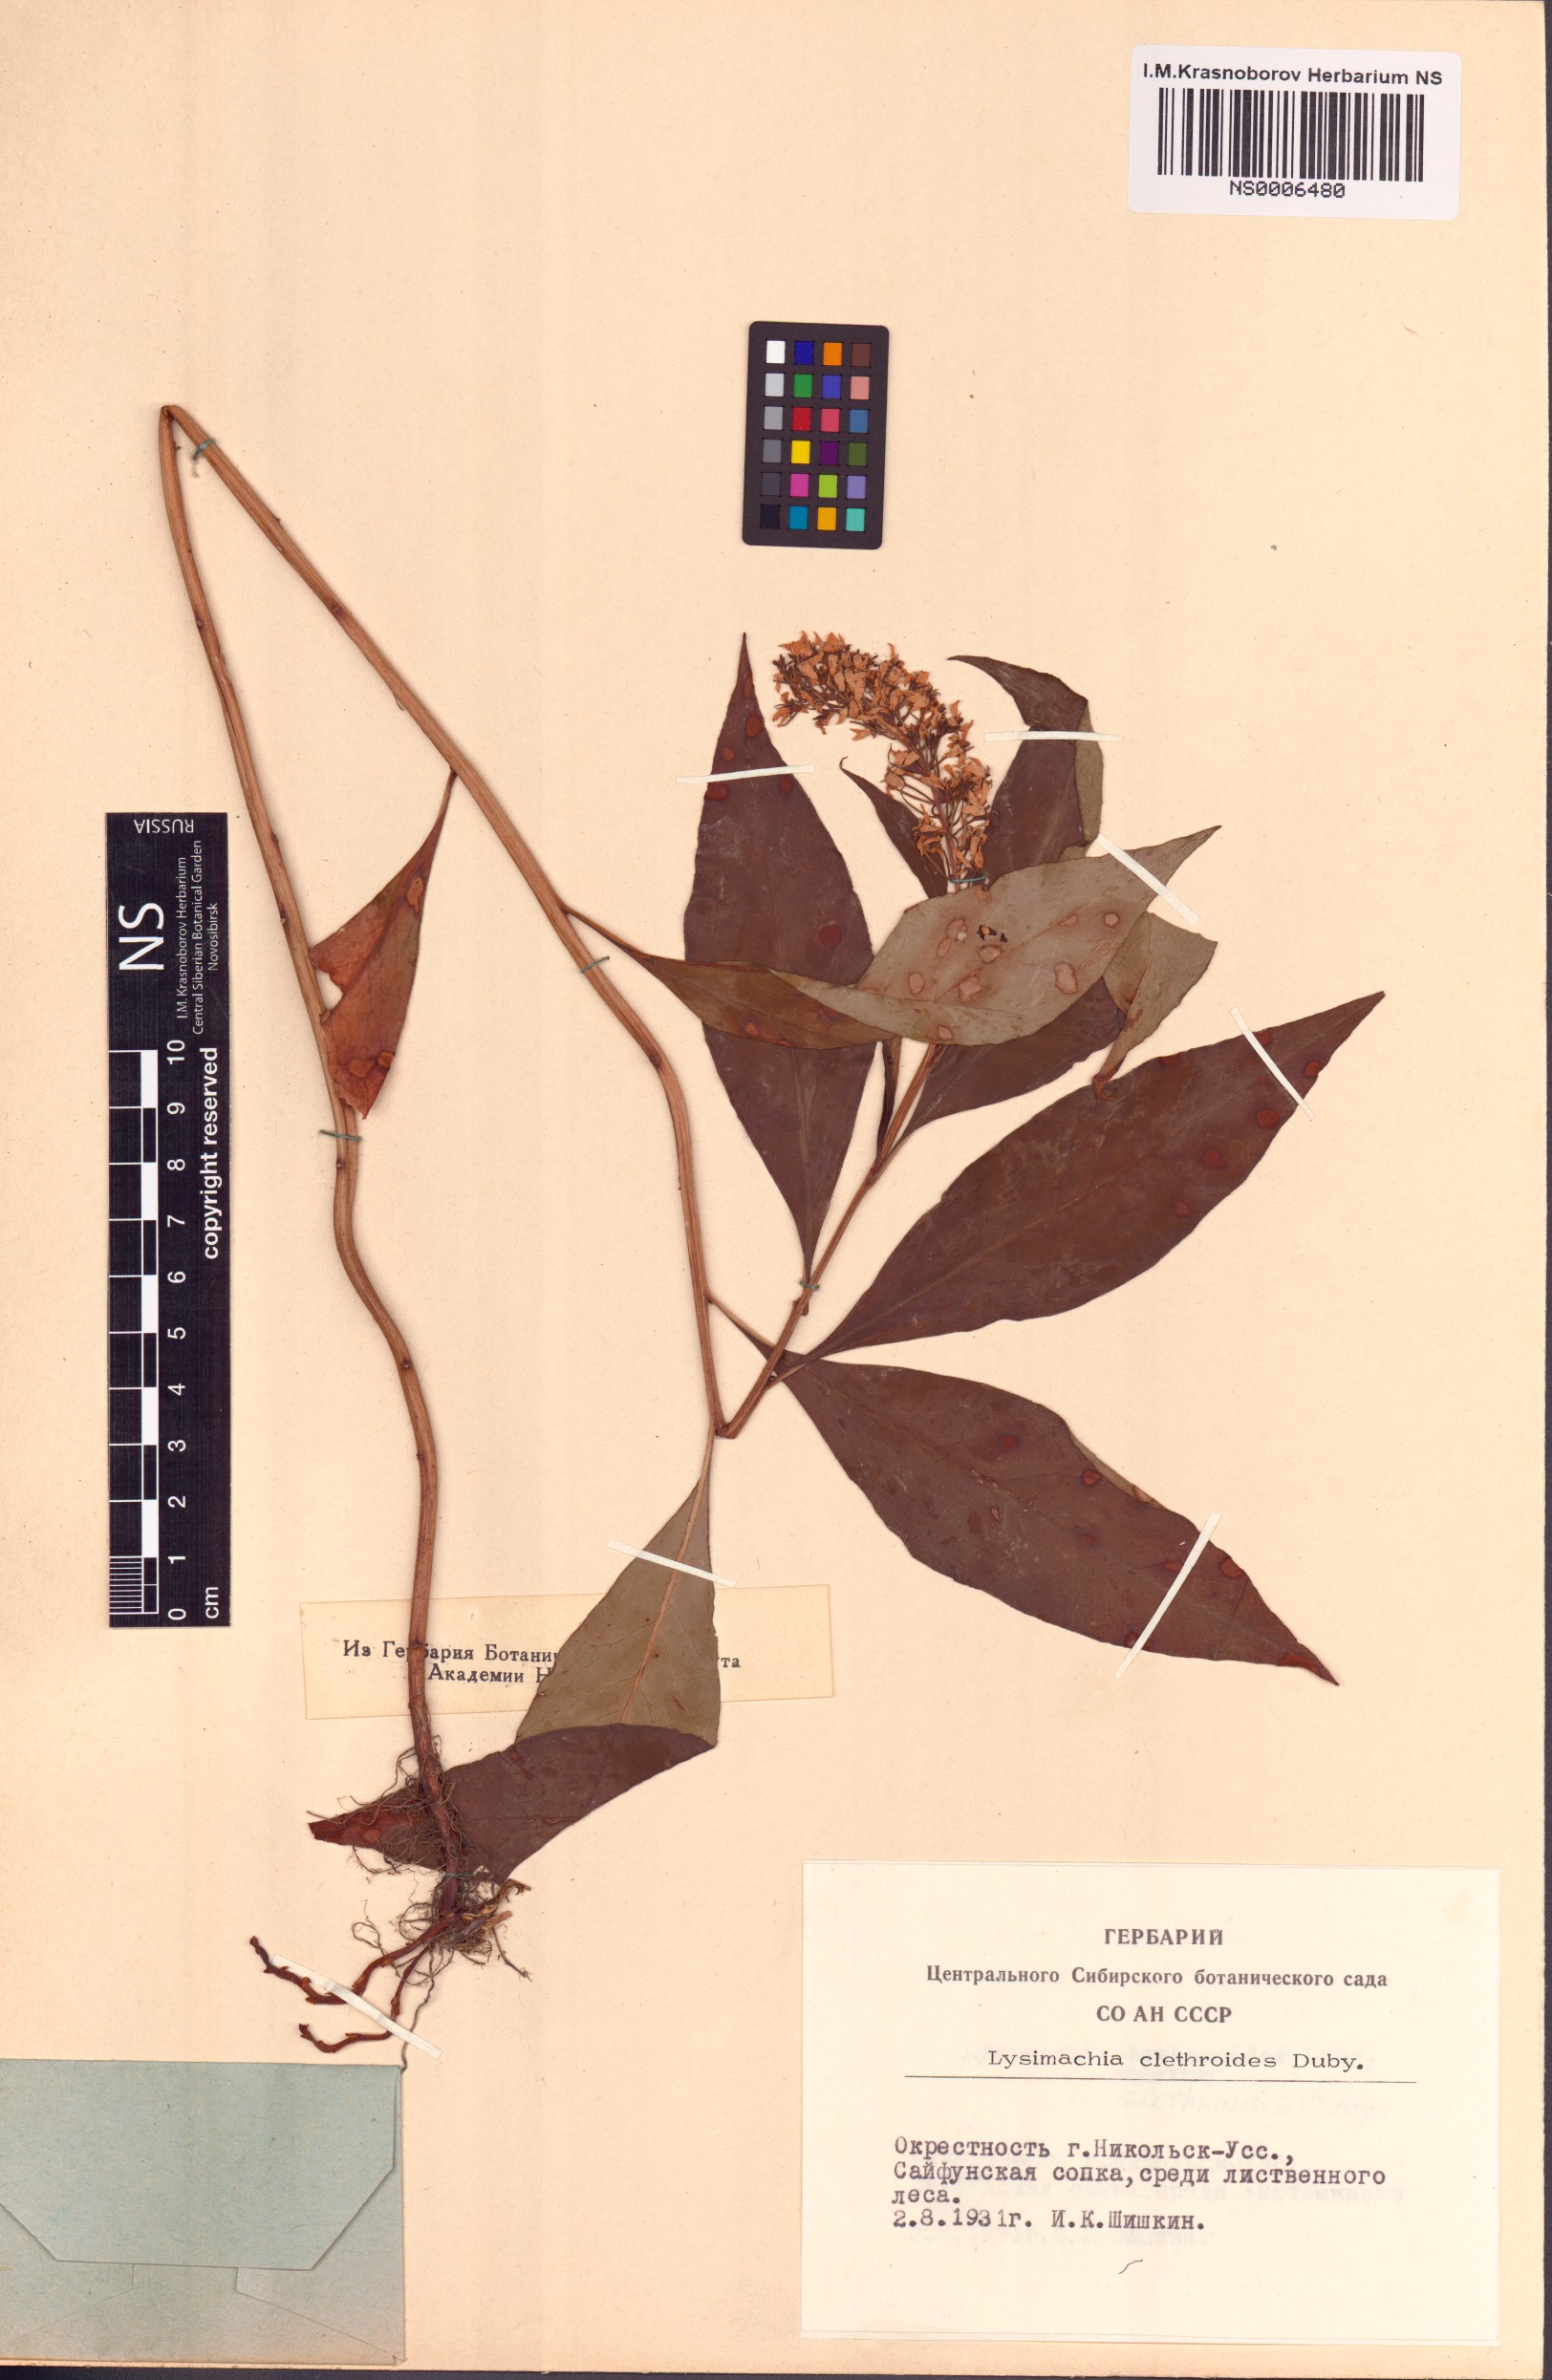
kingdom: Plantae
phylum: Tracheophyta
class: Magnoliopsida
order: Ericales
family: Primulaceae
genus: Lysimachia
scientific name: Lysimachia clethroides
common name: Gooseneck loosestrife
